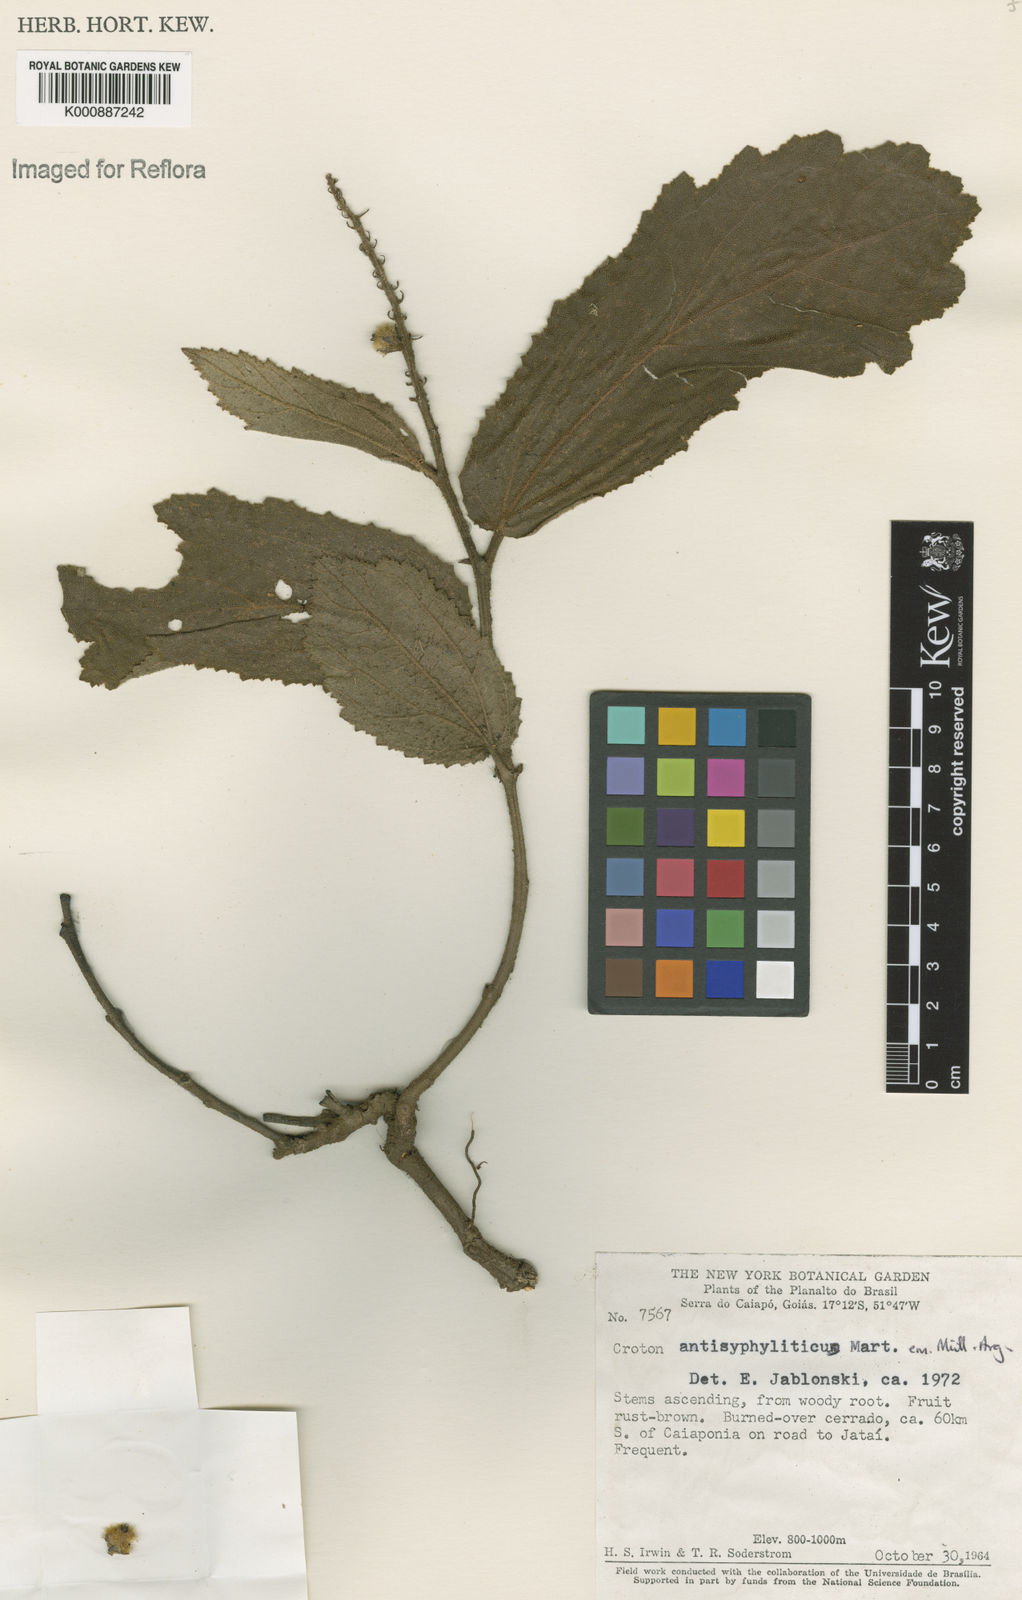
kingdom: Plantae
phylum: Tracheophyta
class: Magnoliopsida
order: Malpighiales
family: Euphorbiaceae
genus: Croton
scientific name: Croton antisyphiliticus
